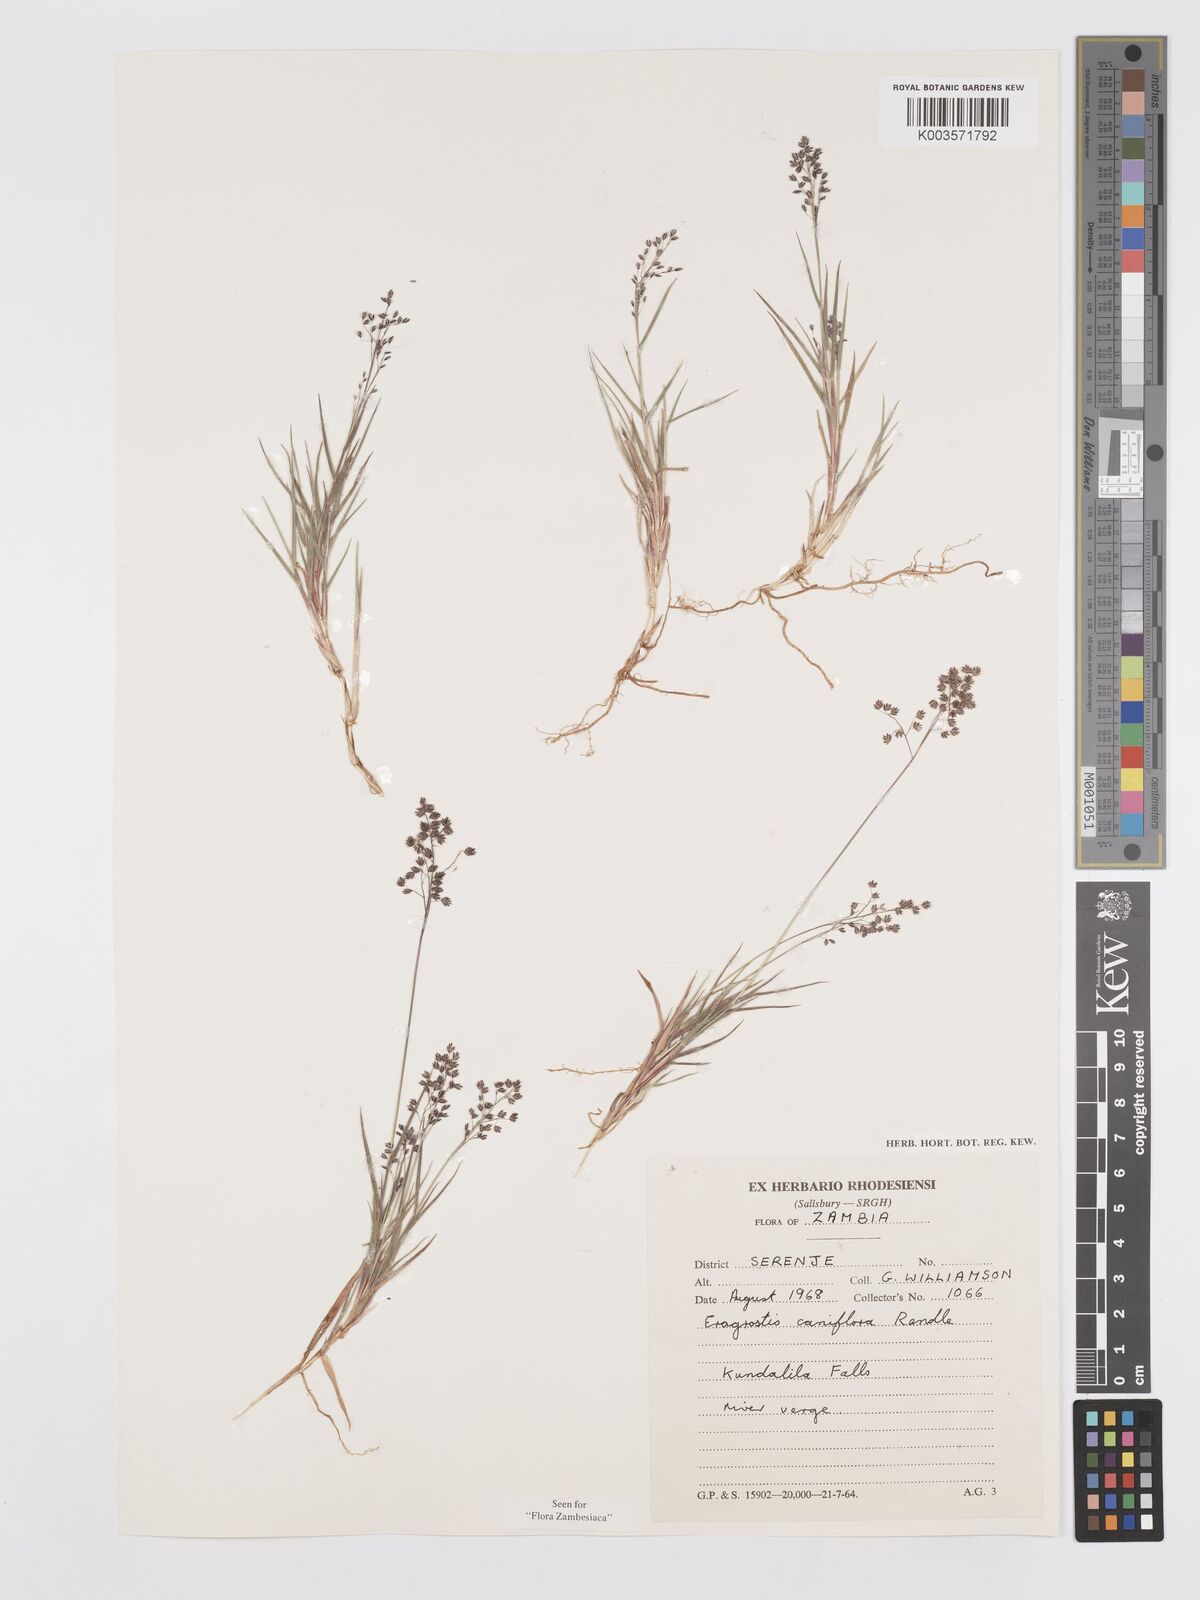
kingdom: Plantae
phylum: Tracheophyta
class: Liliopsida
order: Poales
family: Poaceae
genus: Eragrostis
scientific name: Eragrostis caniflora
